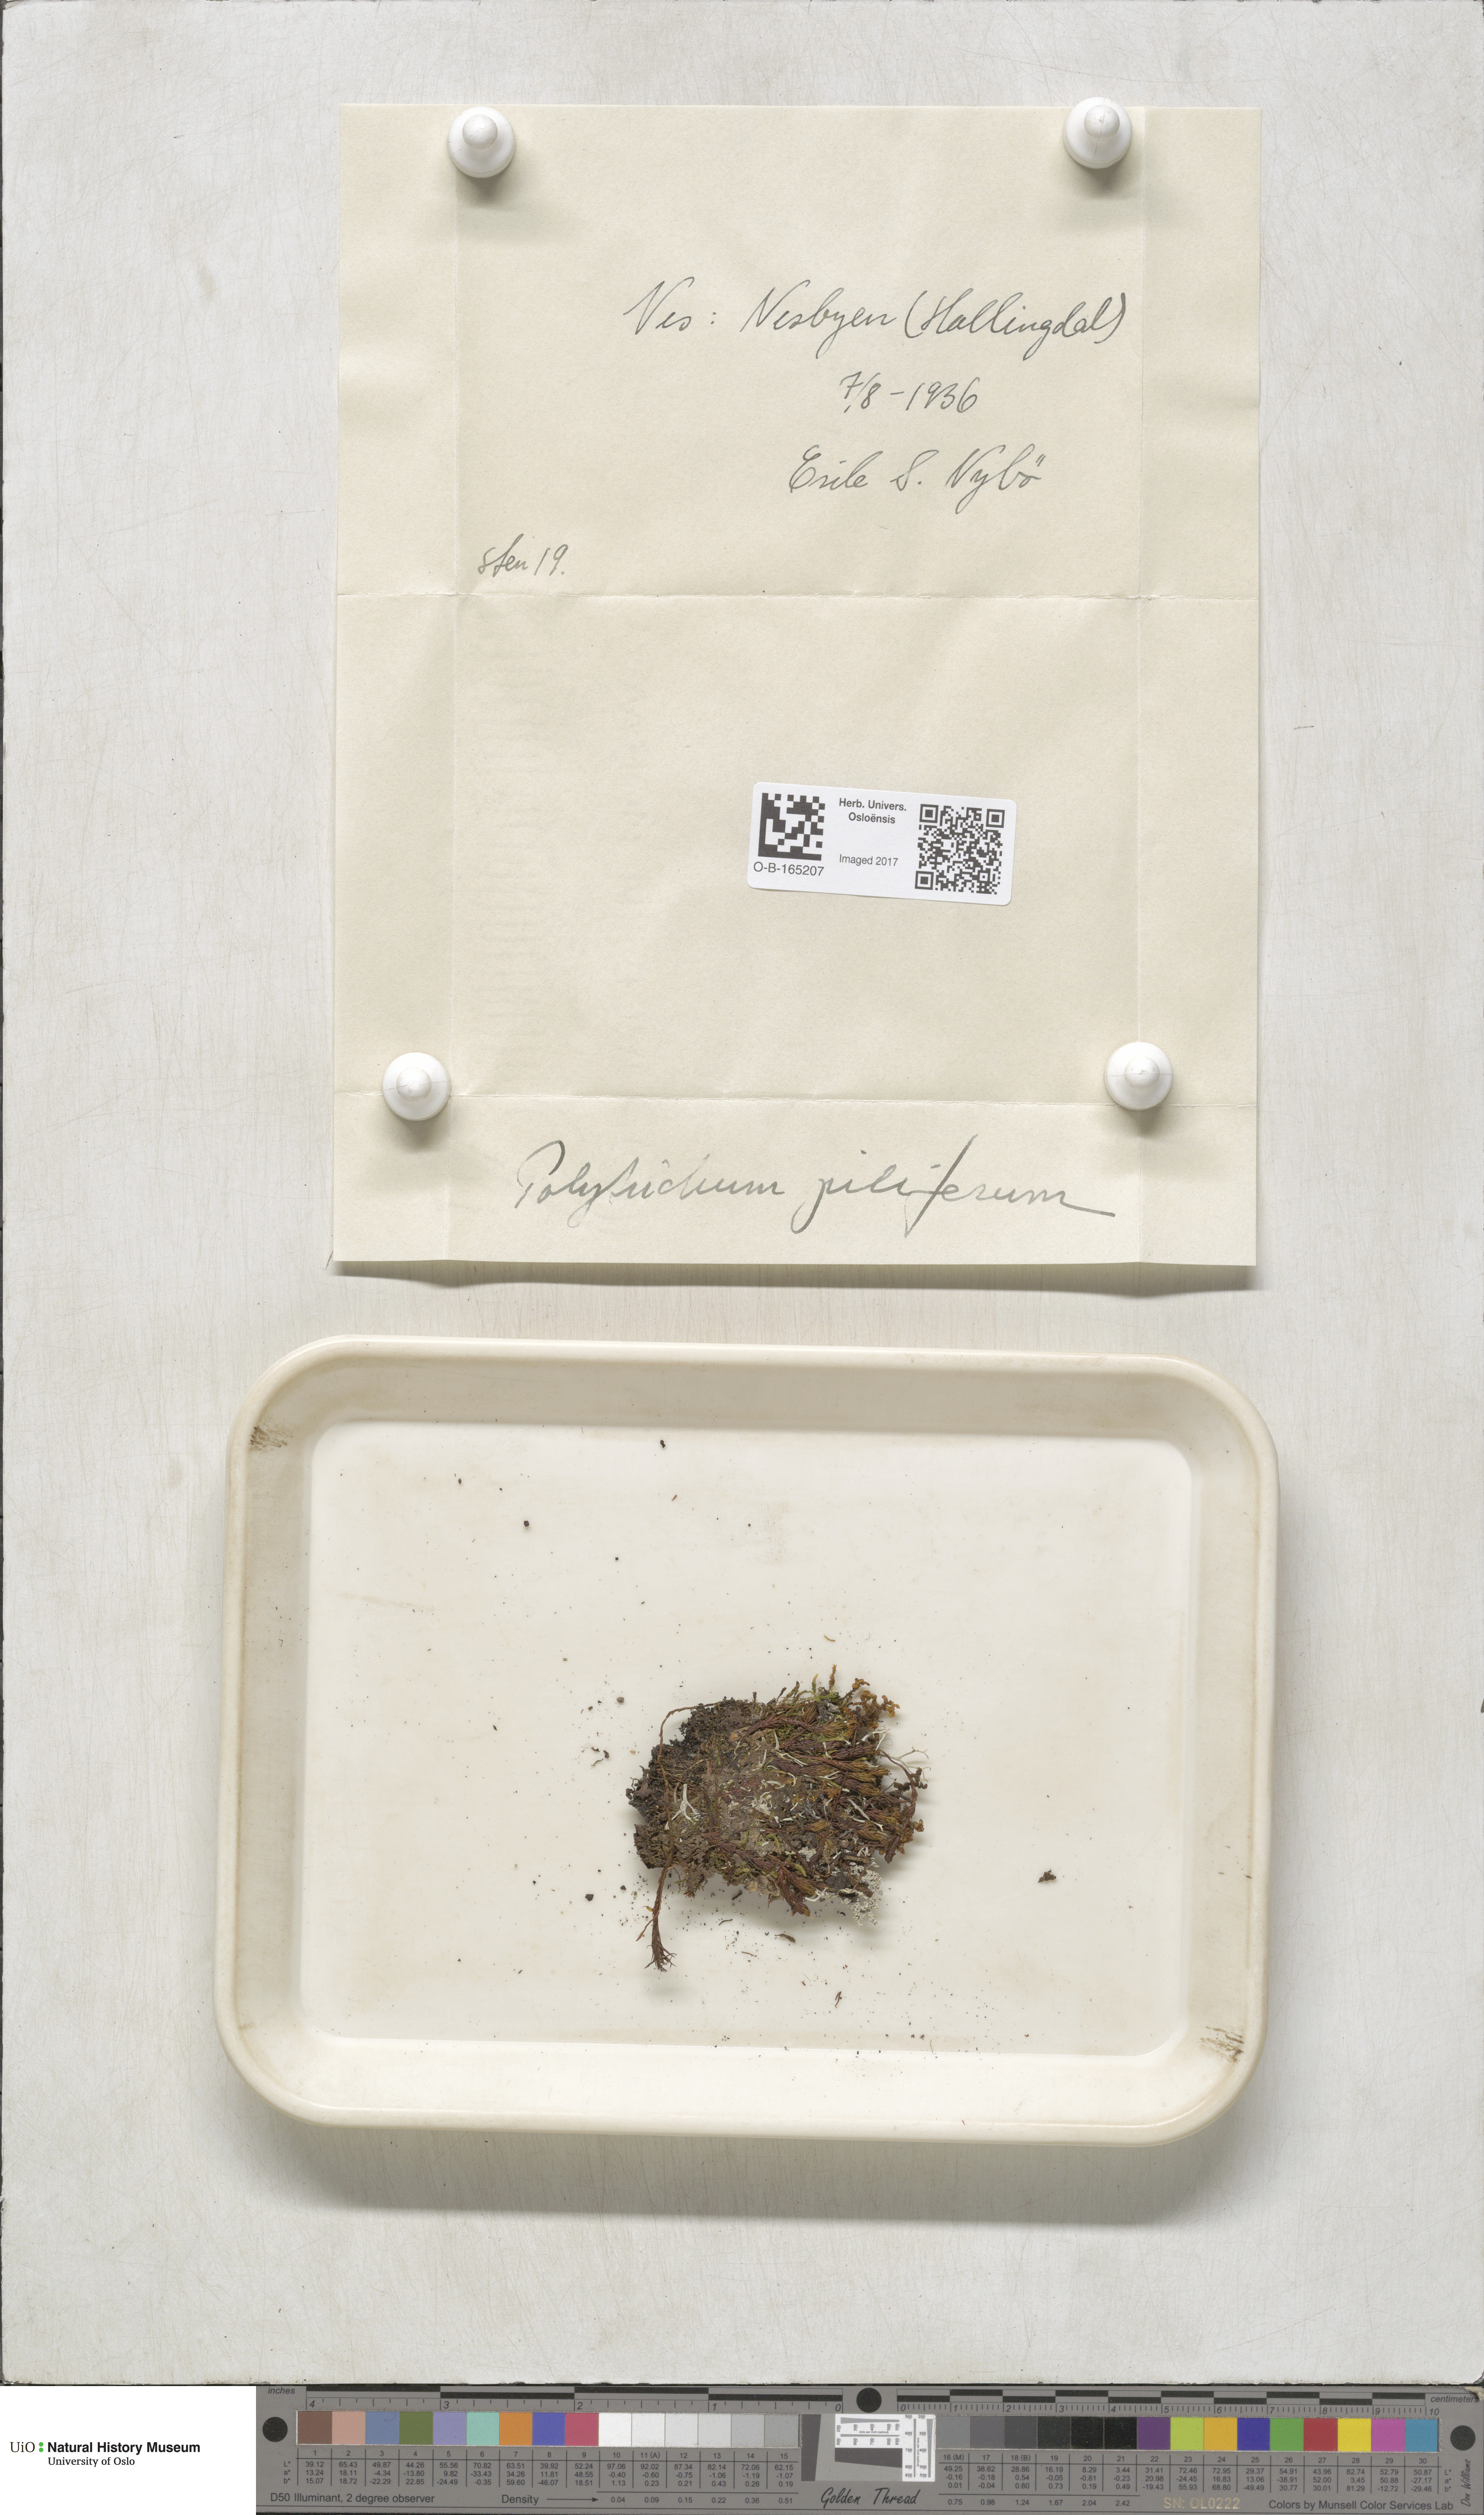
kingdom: Plantae
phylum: Bryophyta
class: Polytrichopsida
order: Polytrichales
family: Polytrichaceae
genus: Polytrichum
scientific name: Polytrichum piliferum
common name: Bristly haircap
